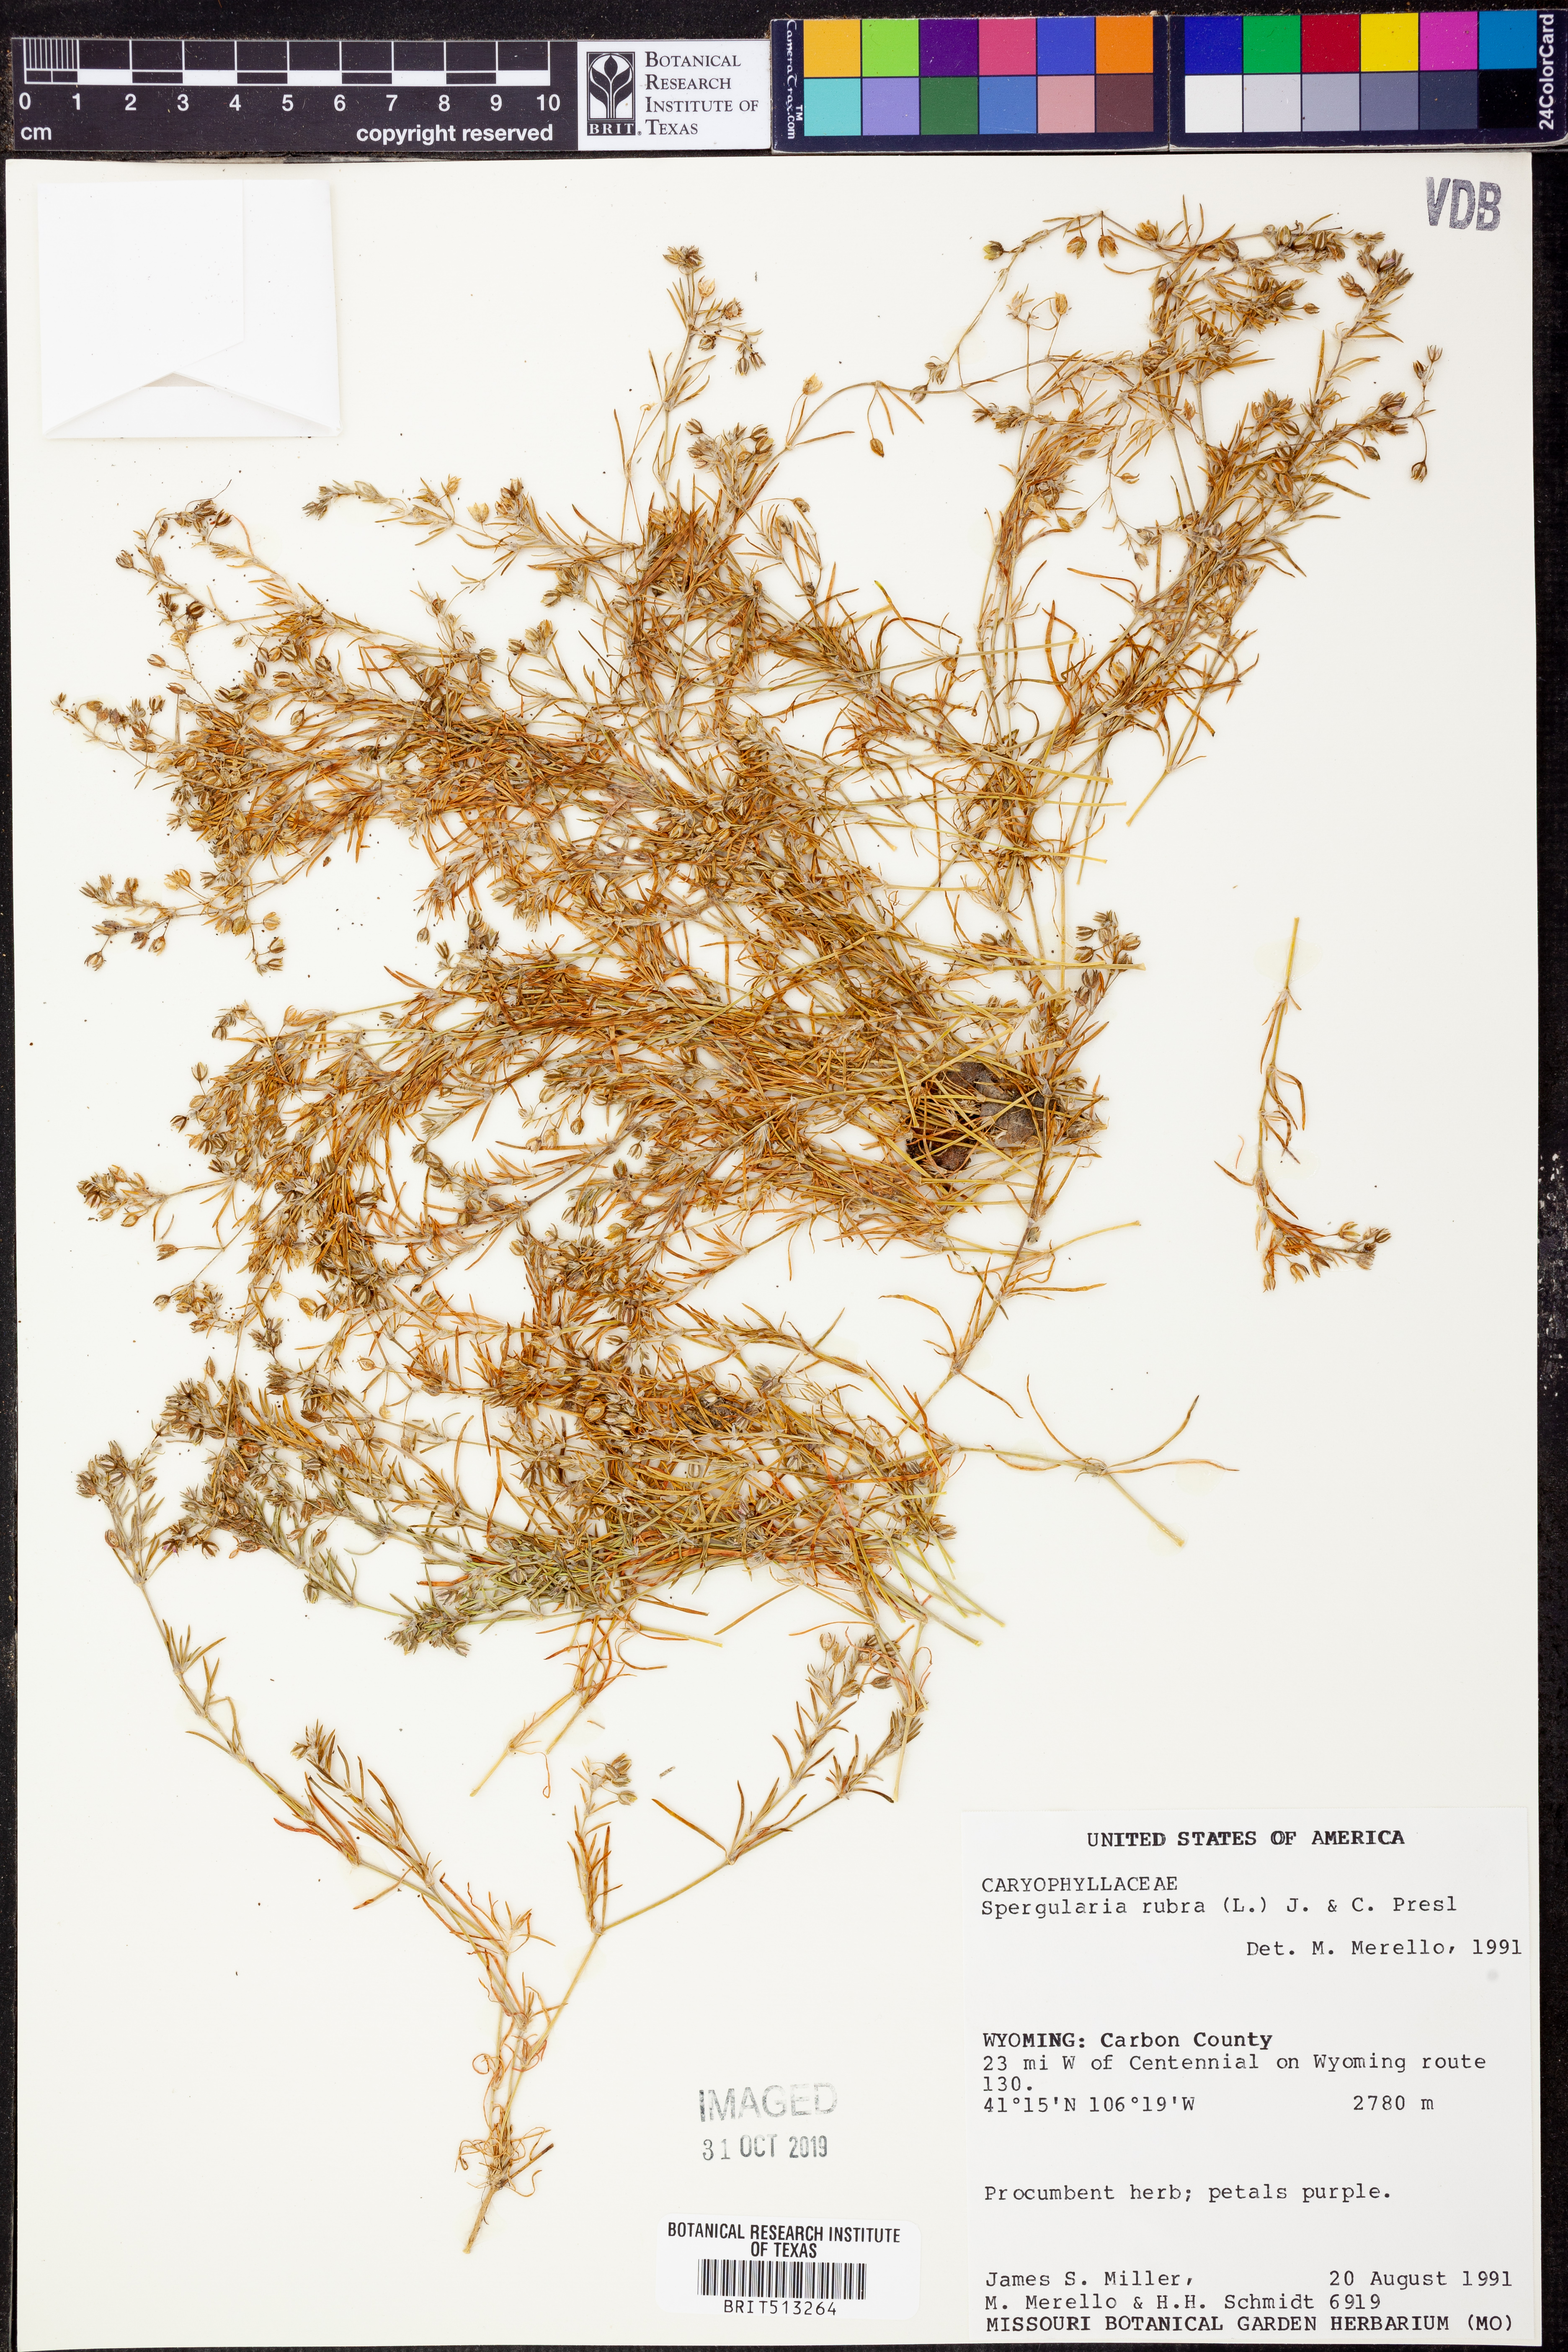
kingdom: Plantae
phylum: Tracheophyta
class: Magnoliopsida
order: Caryophyllales
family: Caryophyllaceae
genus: Spergularia
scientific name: Spergularia rubra
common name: Red sand-spurrey
